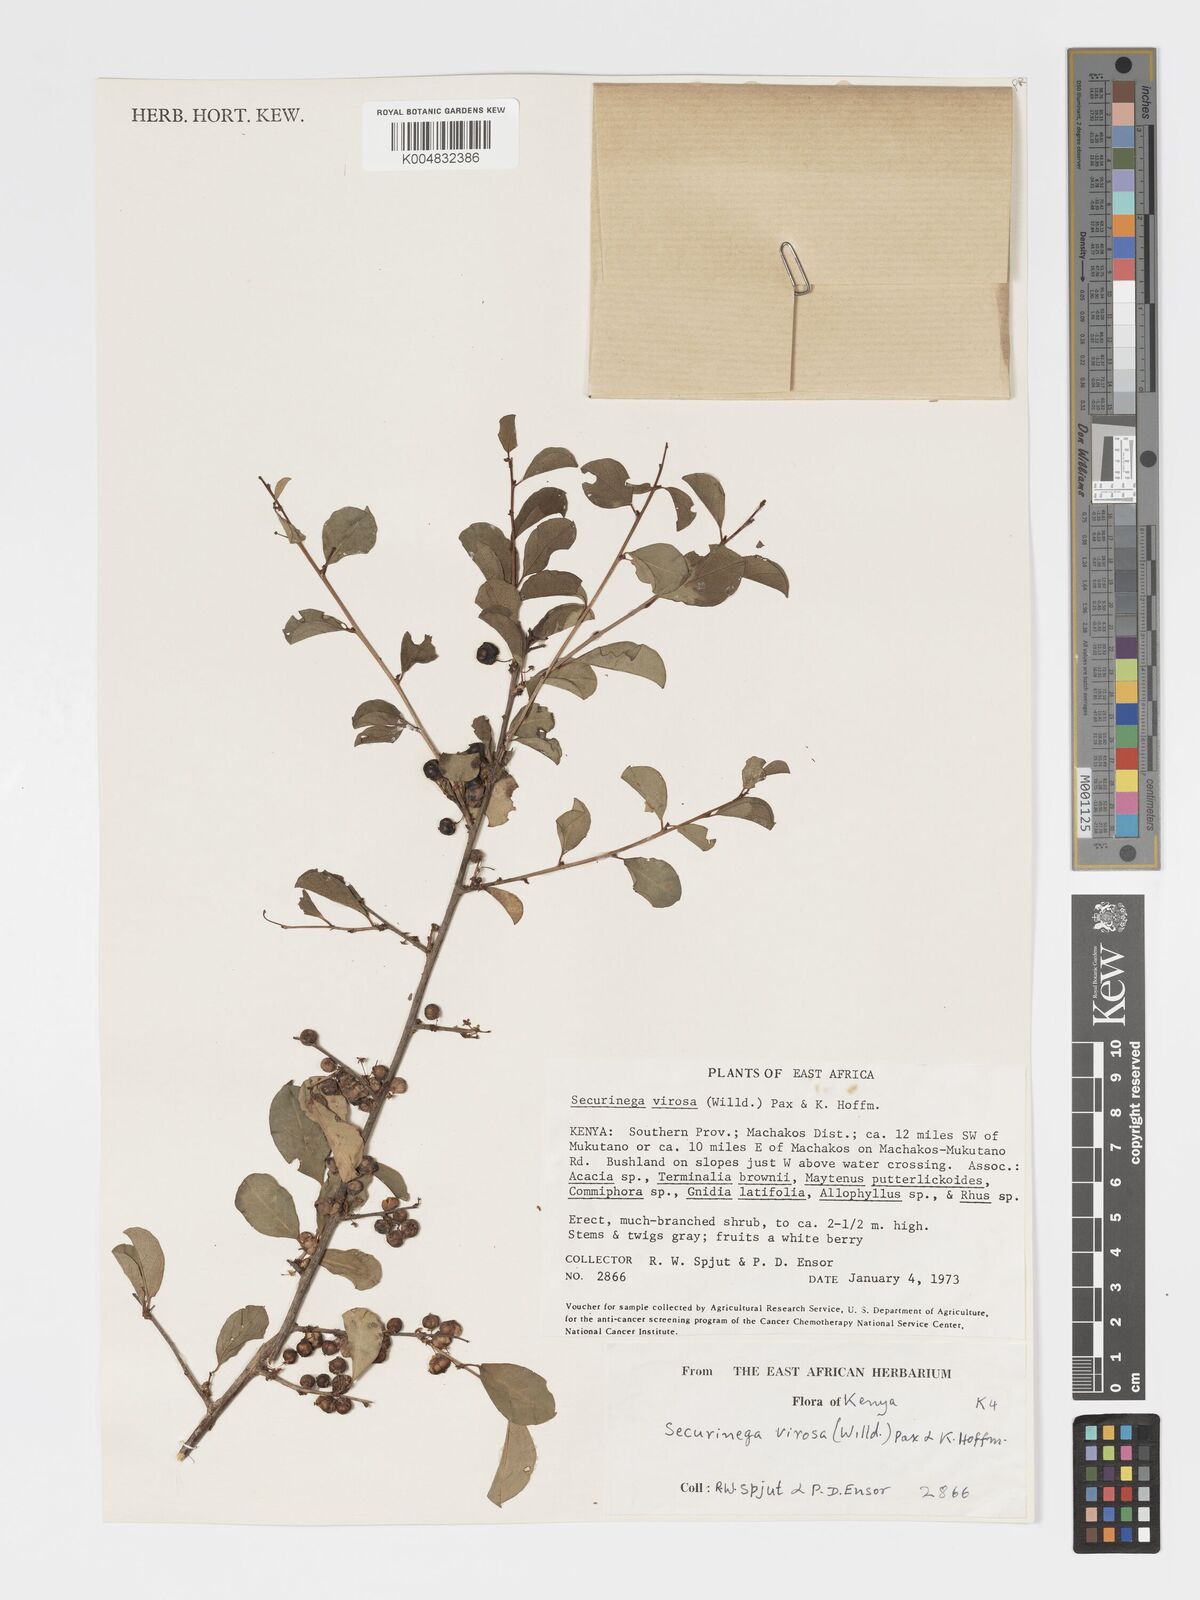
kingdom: Plantae
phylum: Tracheophyta
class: Magnoliopsida
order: Malpighiales
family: Phyllanthaceae
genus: Flueggea
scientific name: Flueggea
